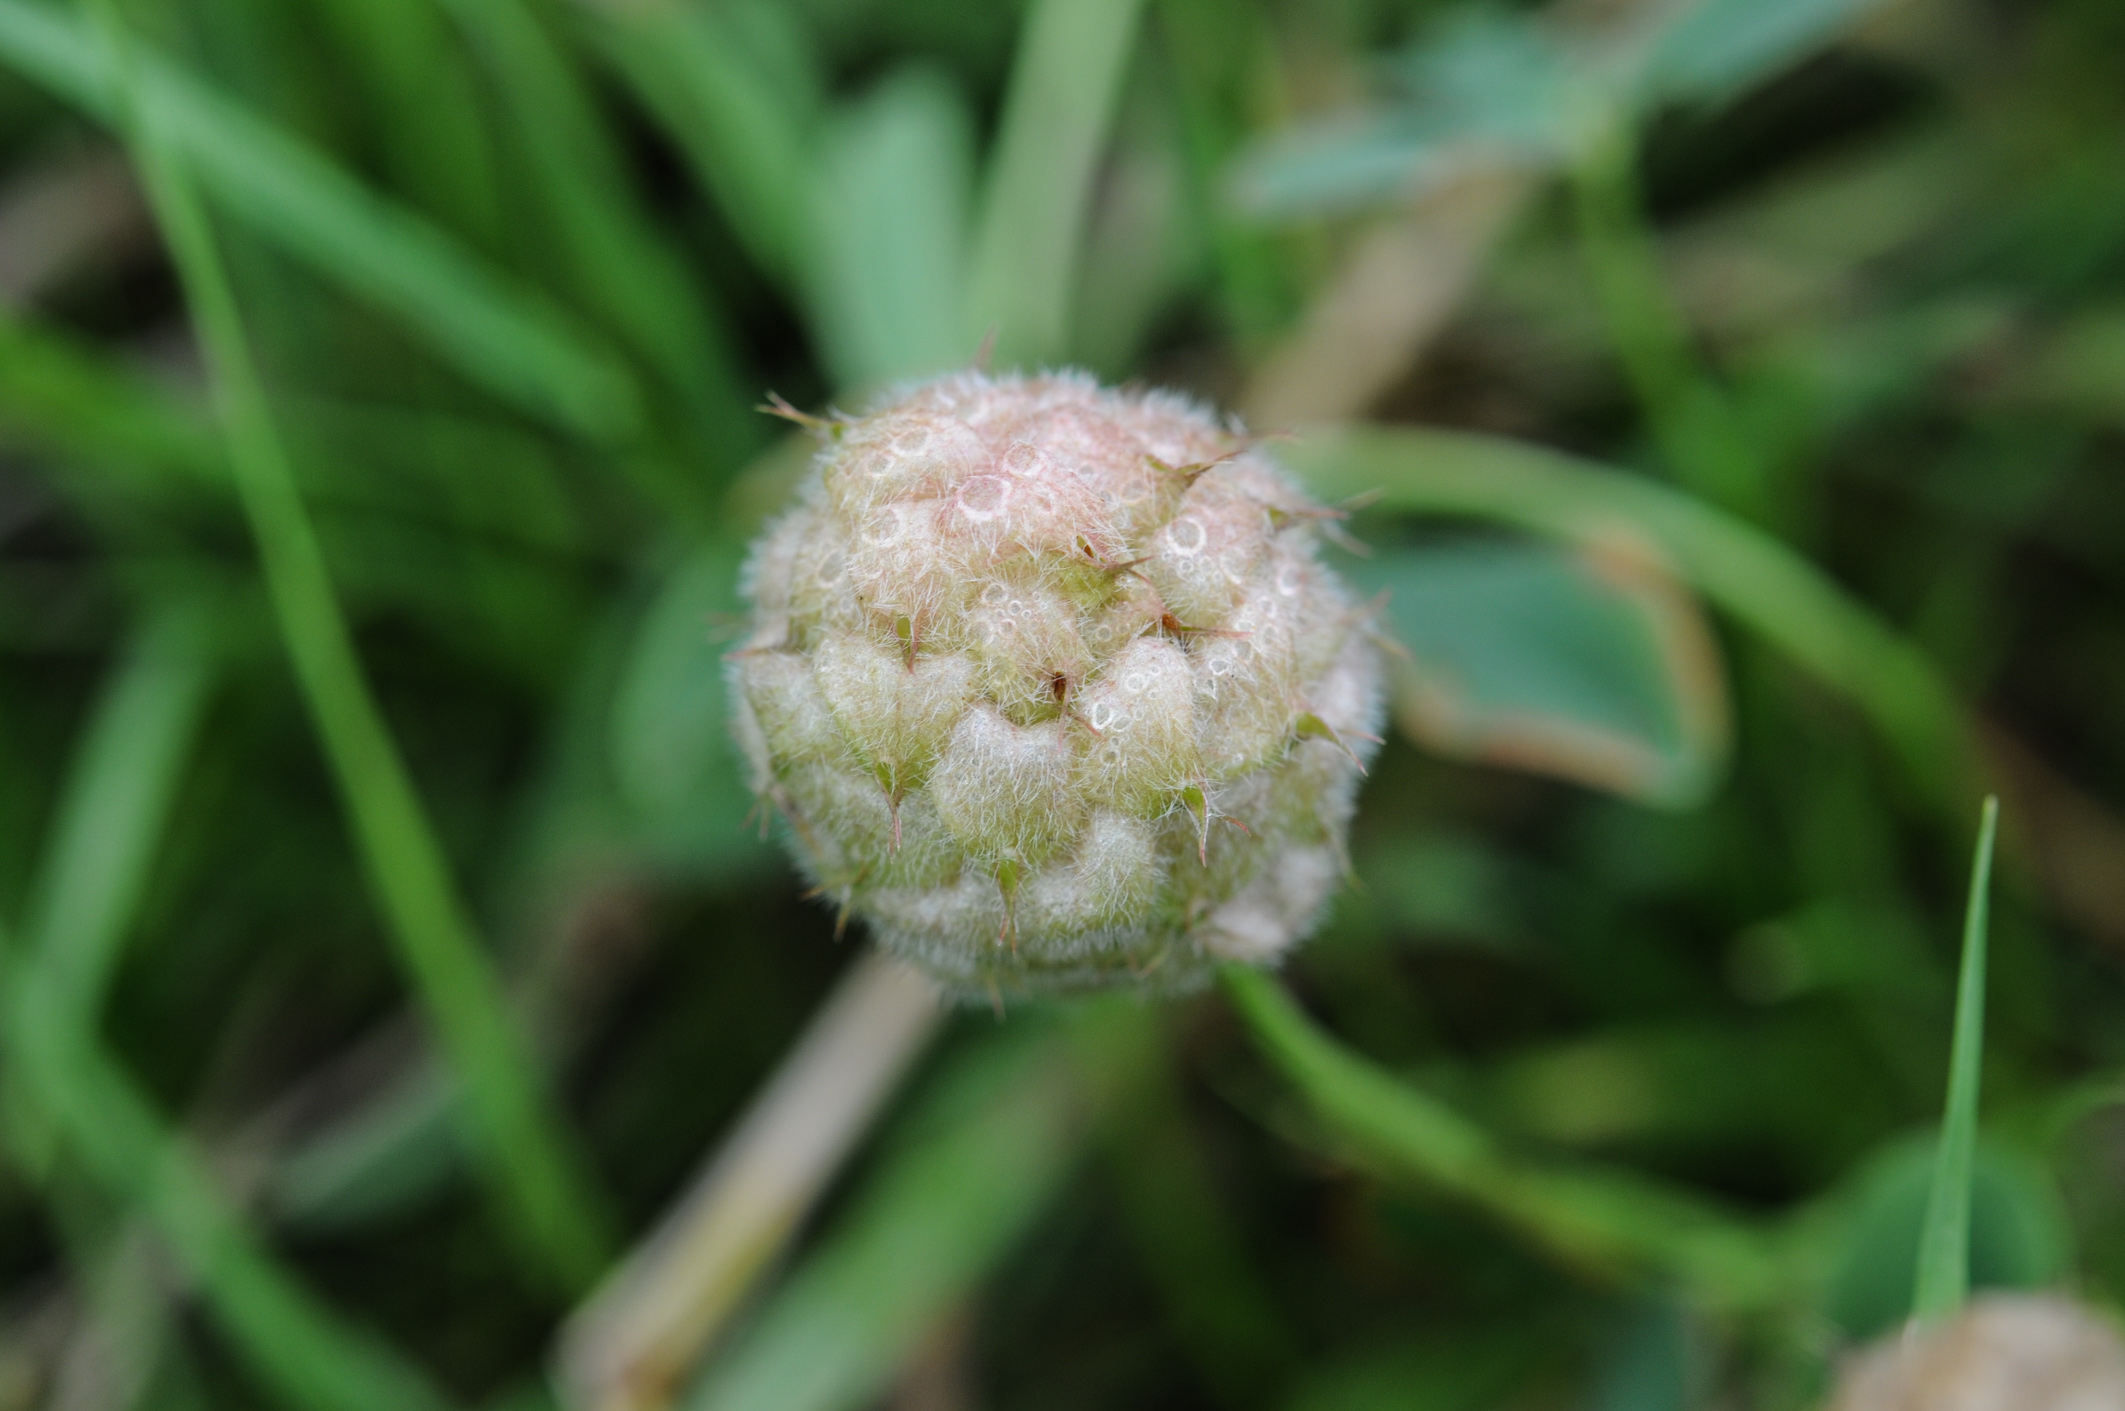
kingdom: Plantae
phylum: Tracheophyta
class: Magnoliopsida
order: Fabales
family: Fabaceae
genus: Trifolium
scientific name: Trifolium fragiferum
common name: Strawberry clover
